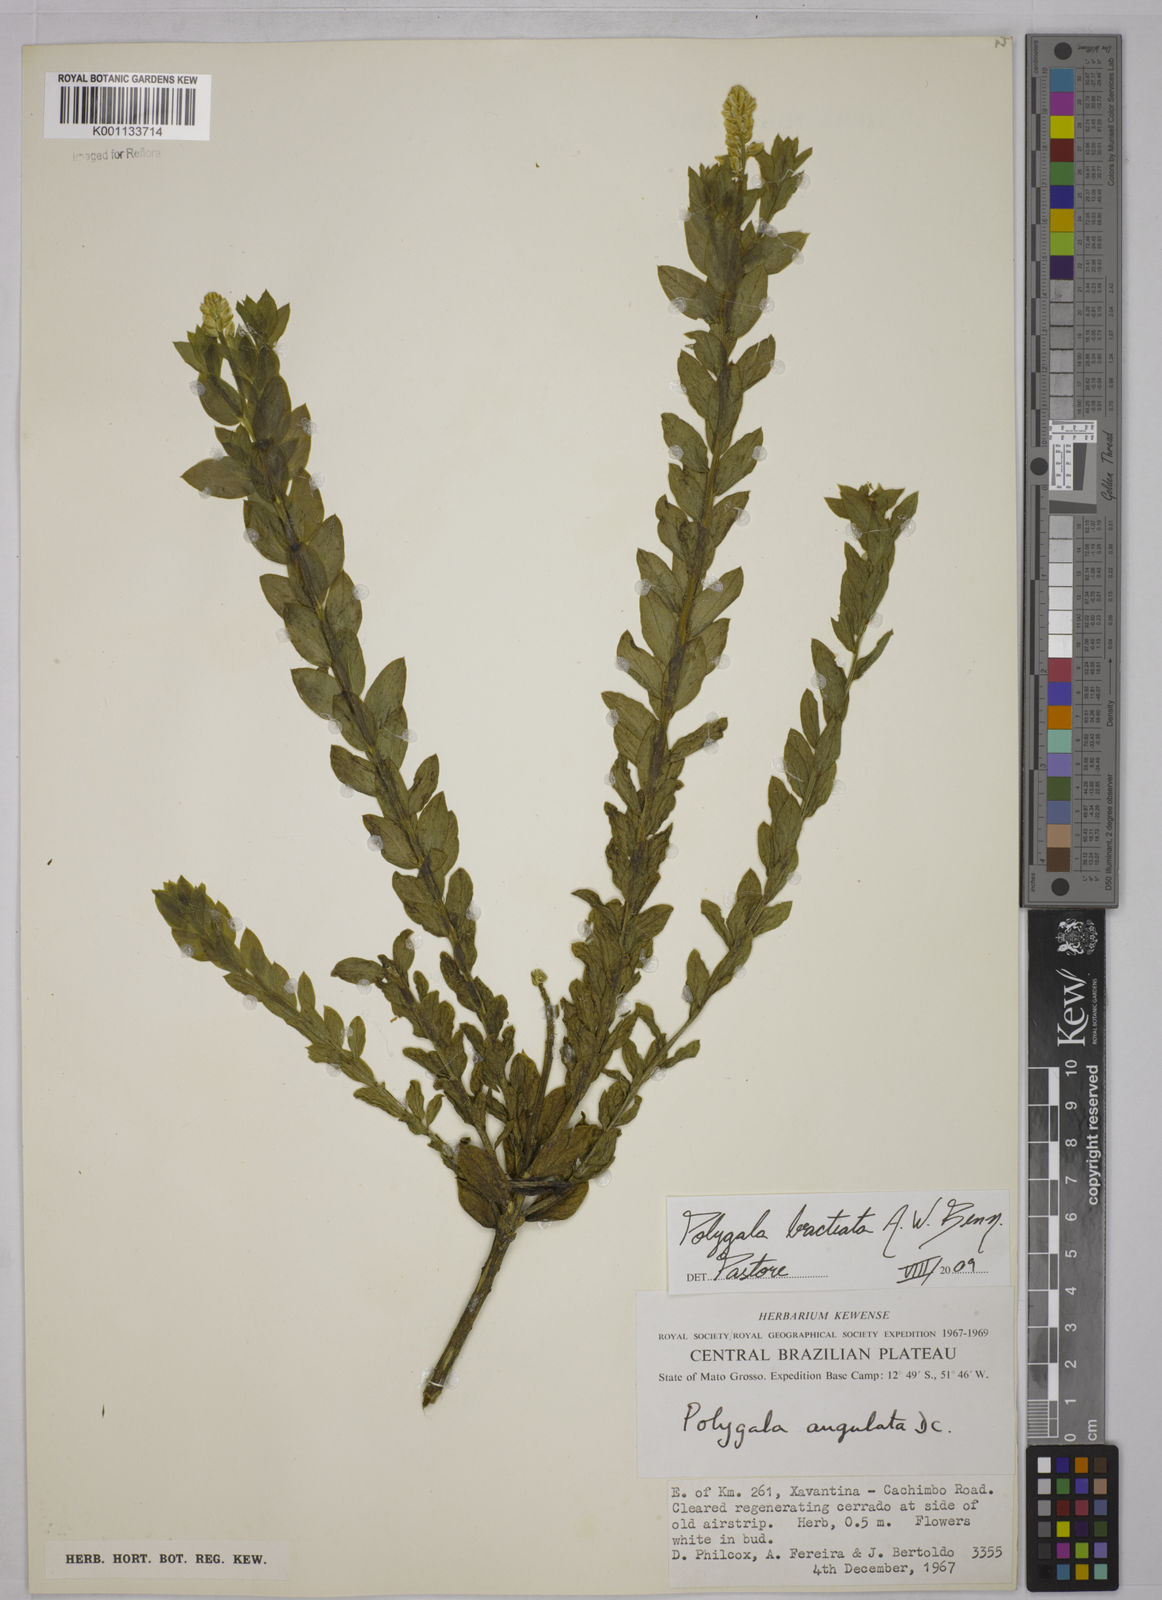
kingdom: Plantae
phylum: Tracheophyta
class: Magnoliopsida
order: Fabales
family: Polygalaceae
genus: Polygala
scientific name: Polygala irwinii
